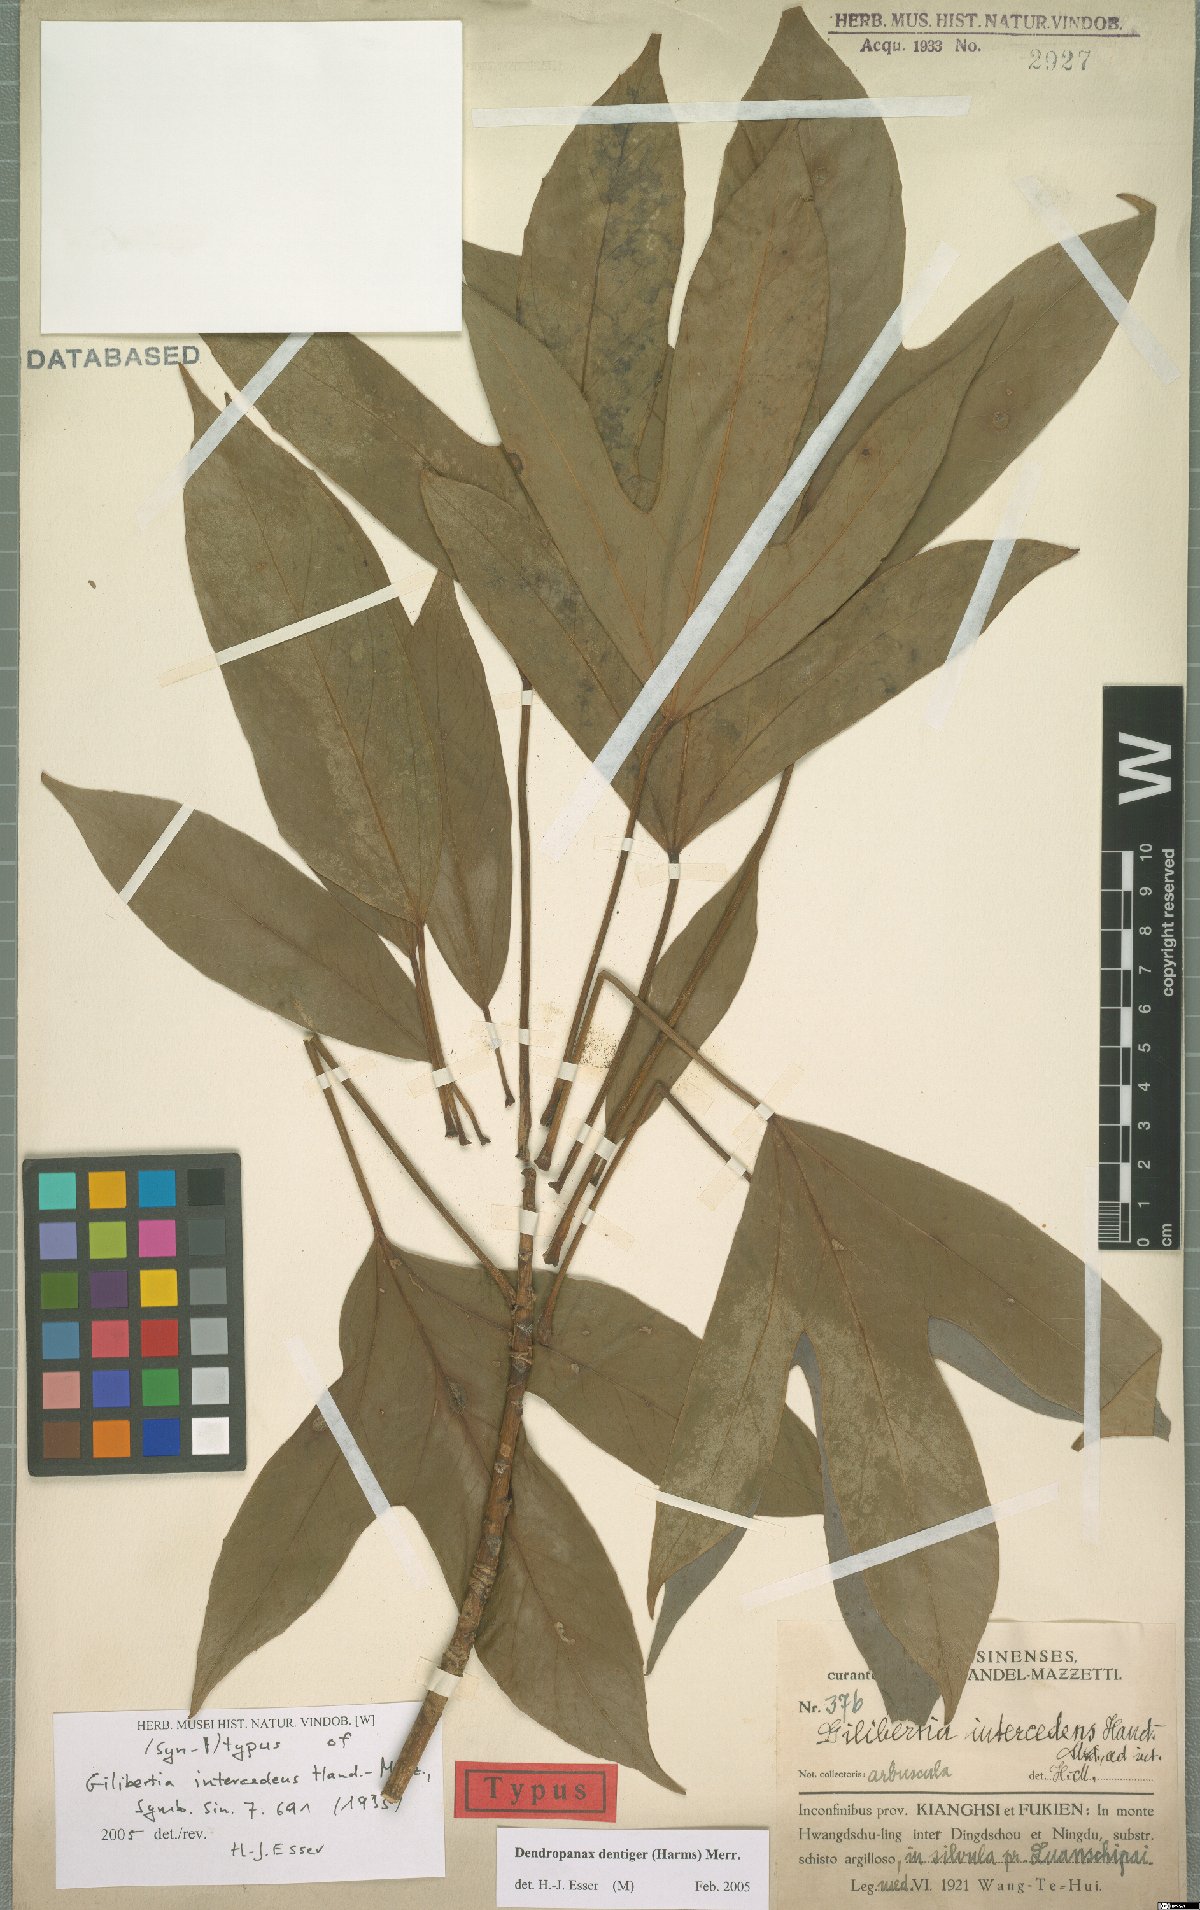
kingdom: Plantae
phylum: Tracheophyta
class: Magnoliopsida
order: Apiales
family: Araliaceae
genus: Dendropanax
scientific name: Dendropanax dentiger
